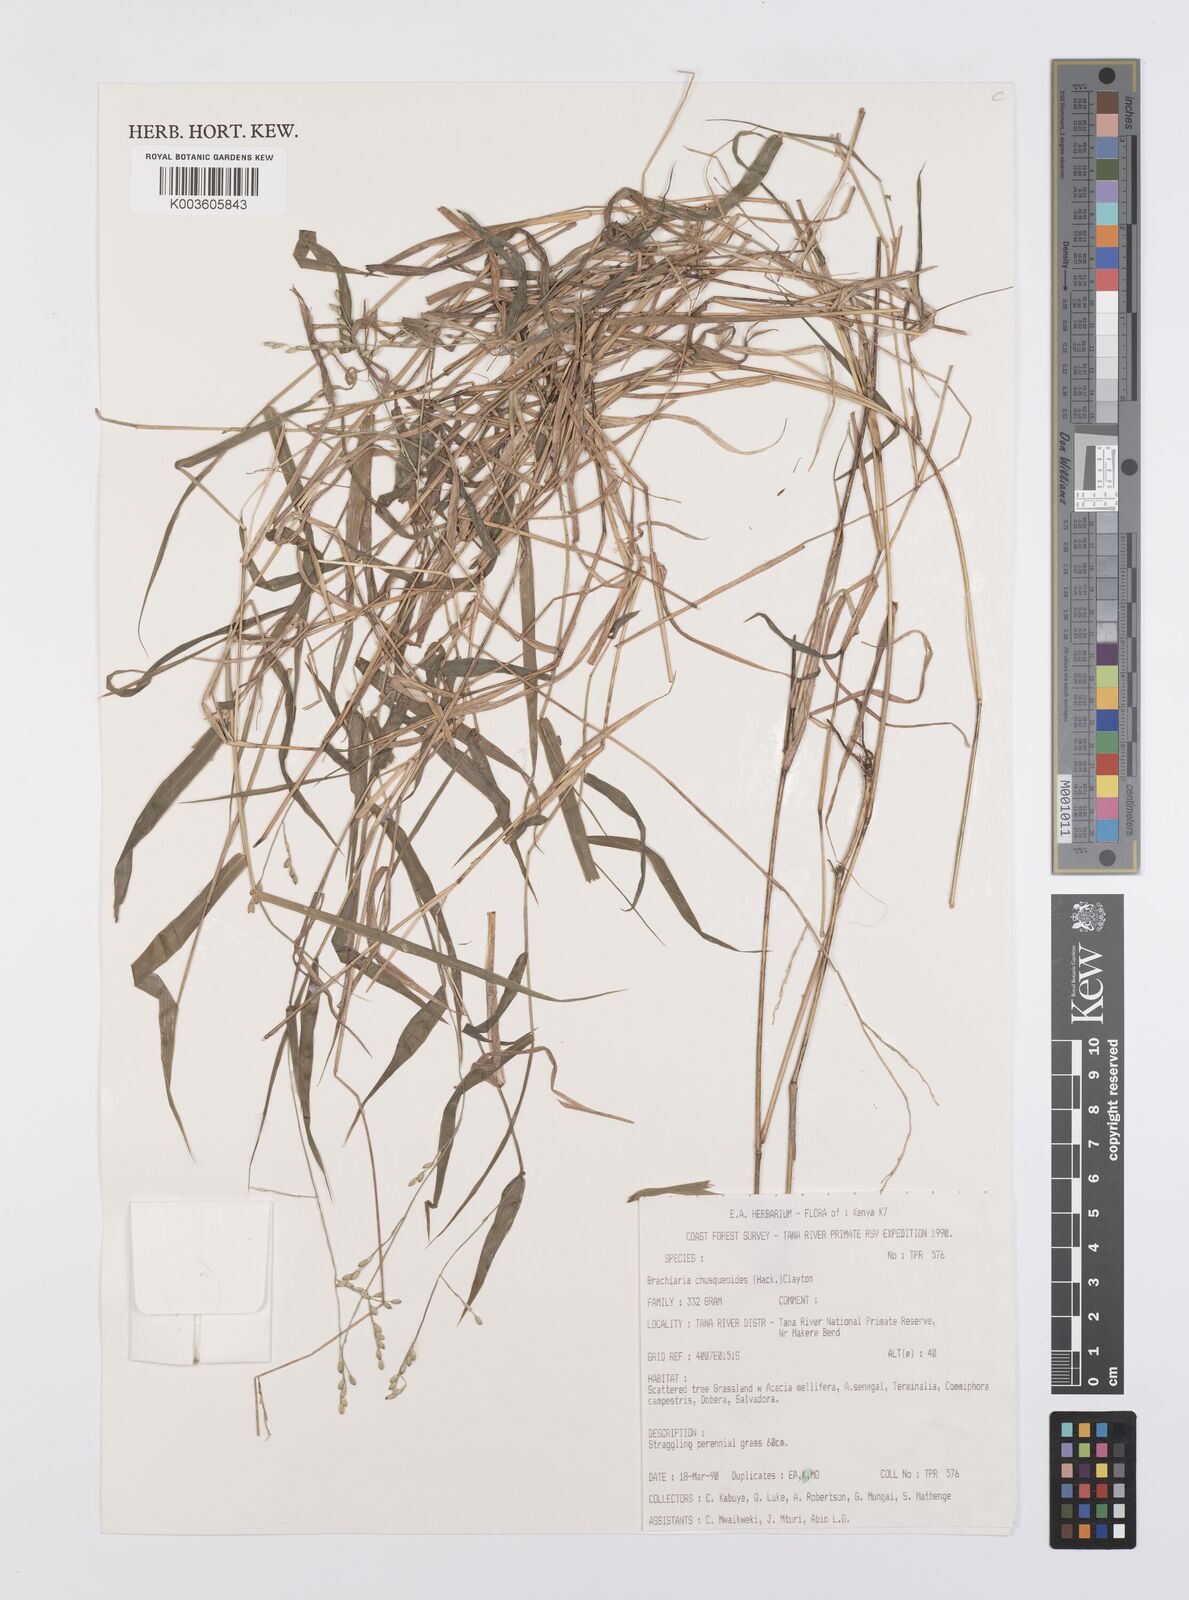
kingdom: Plantae
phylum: Tracheophyta
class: Liliopsida
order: Poales
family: Poaceae
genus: Urochloa
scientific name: Urochloa chusqueoides
